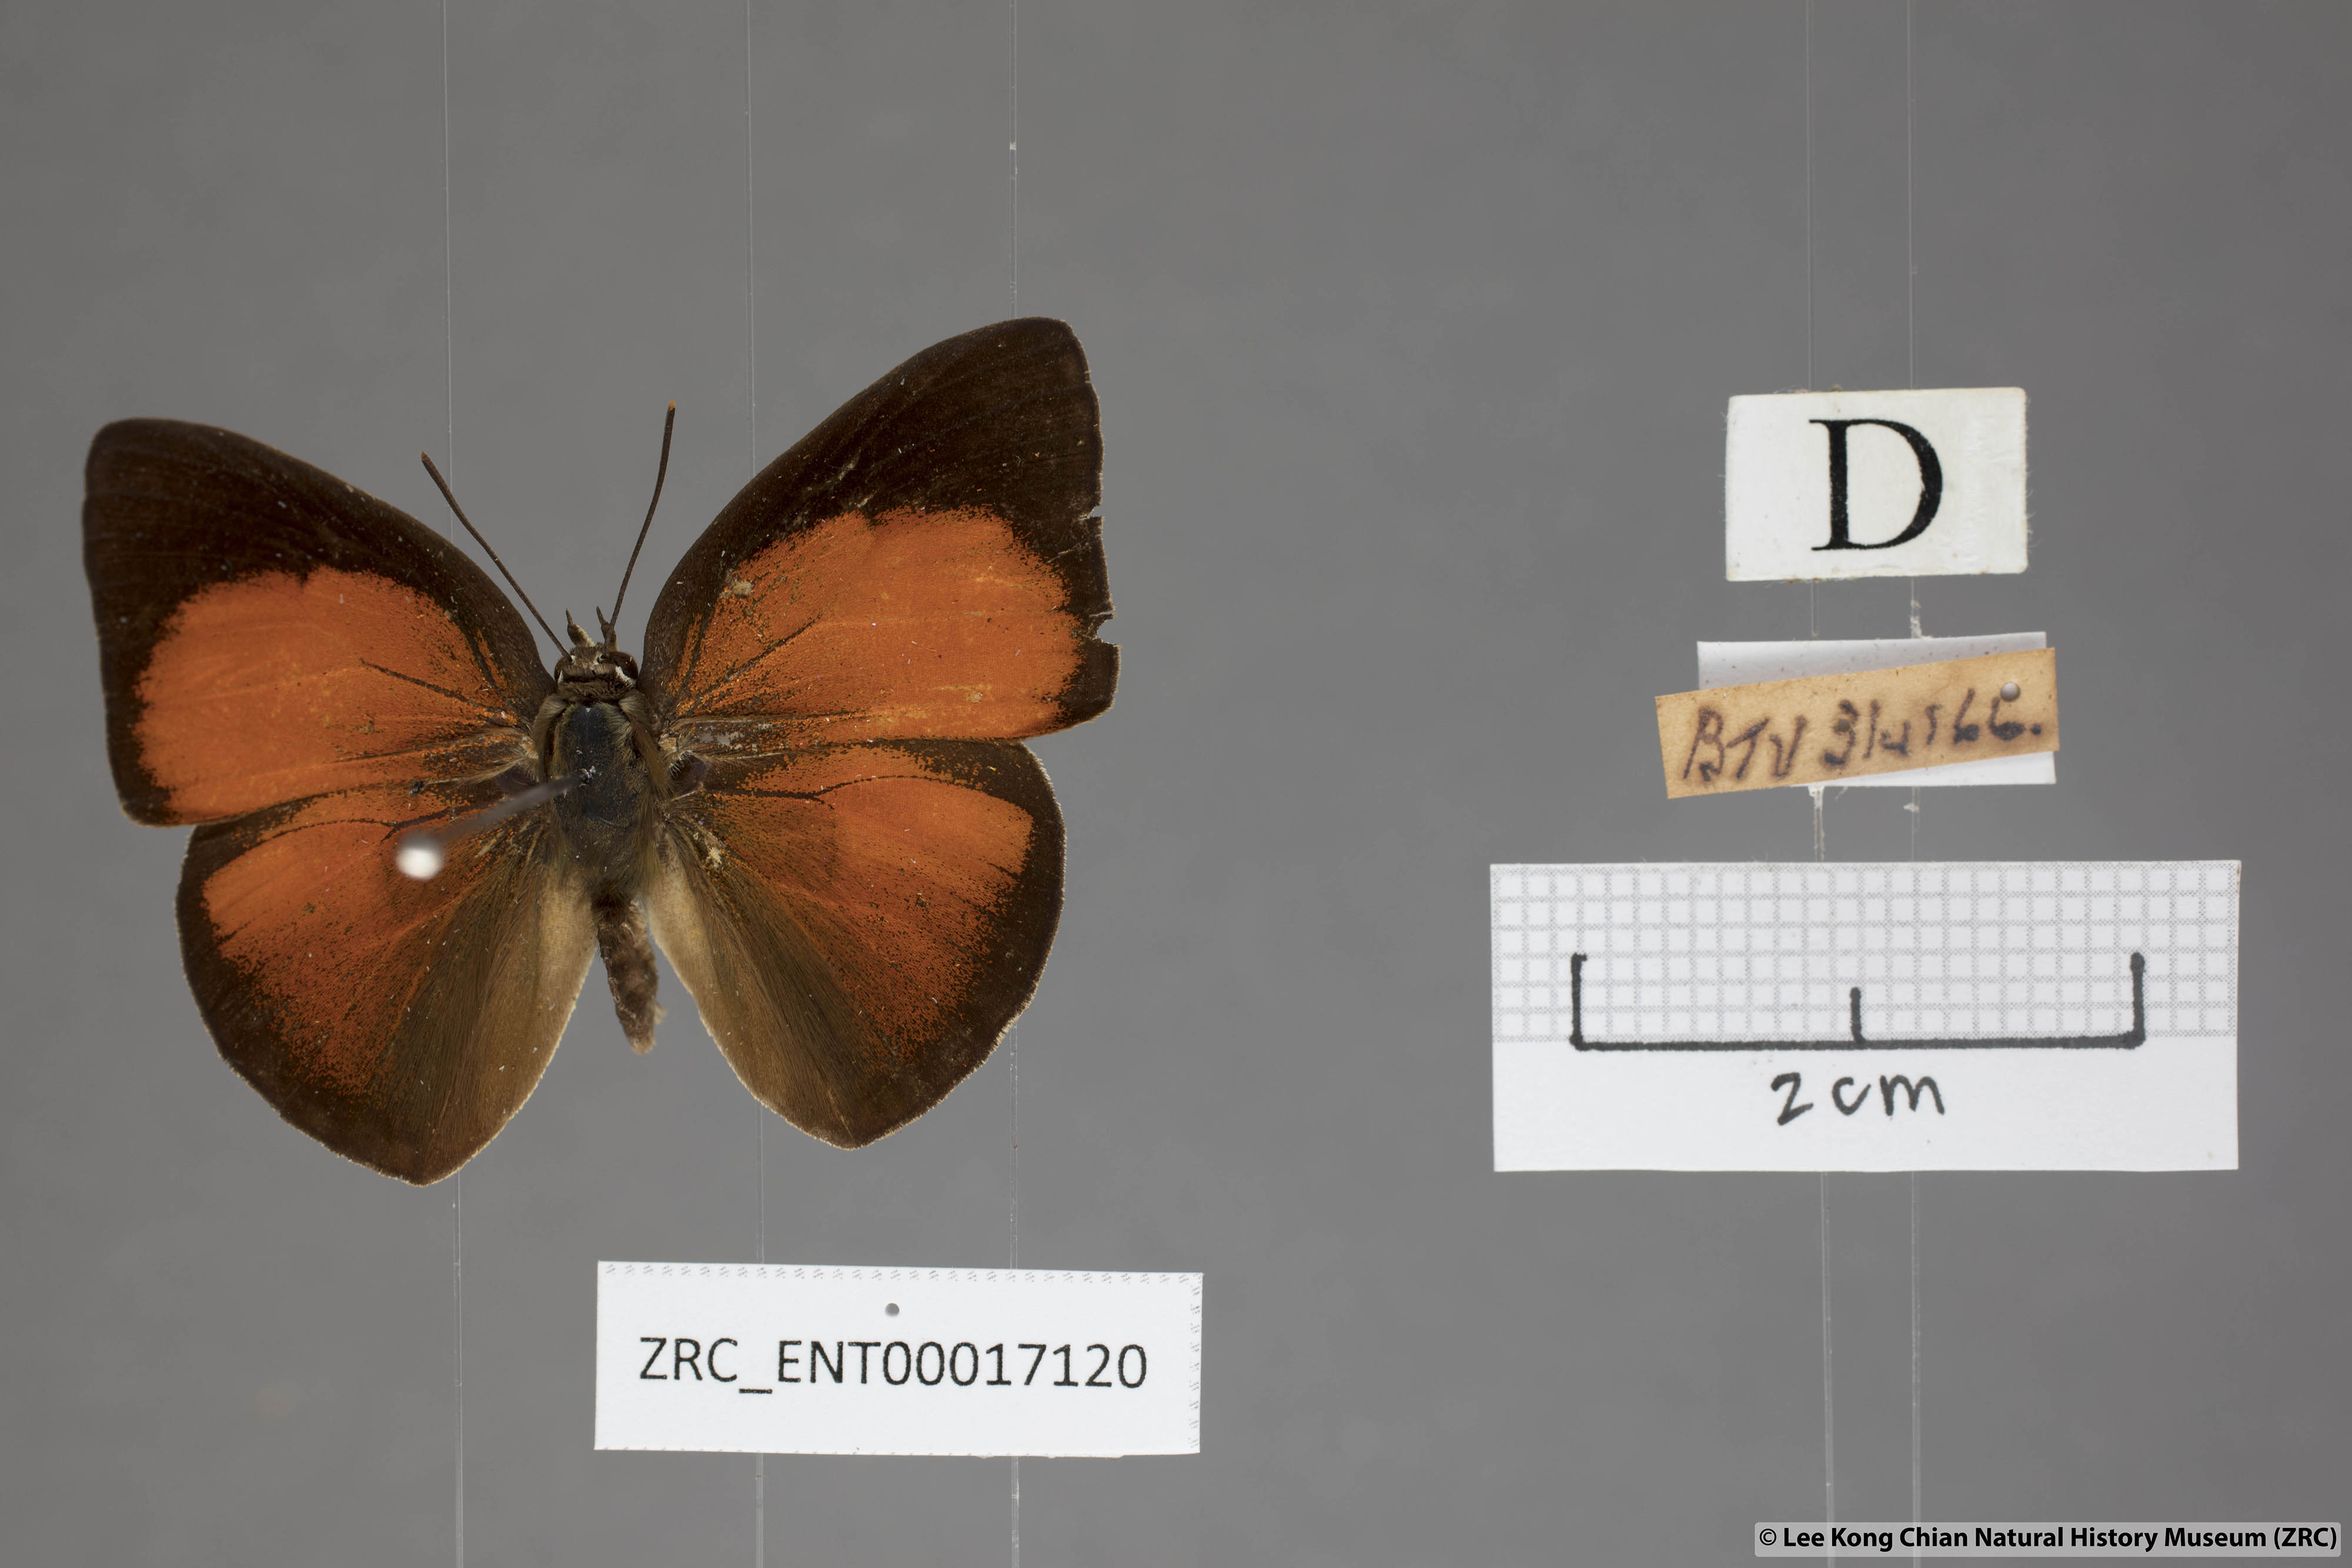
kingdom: Animalia
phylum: Arthropoda
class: Insecta
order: Lepidoptera
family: Lycaenidae
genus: Curetis
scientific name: Curetis freda
